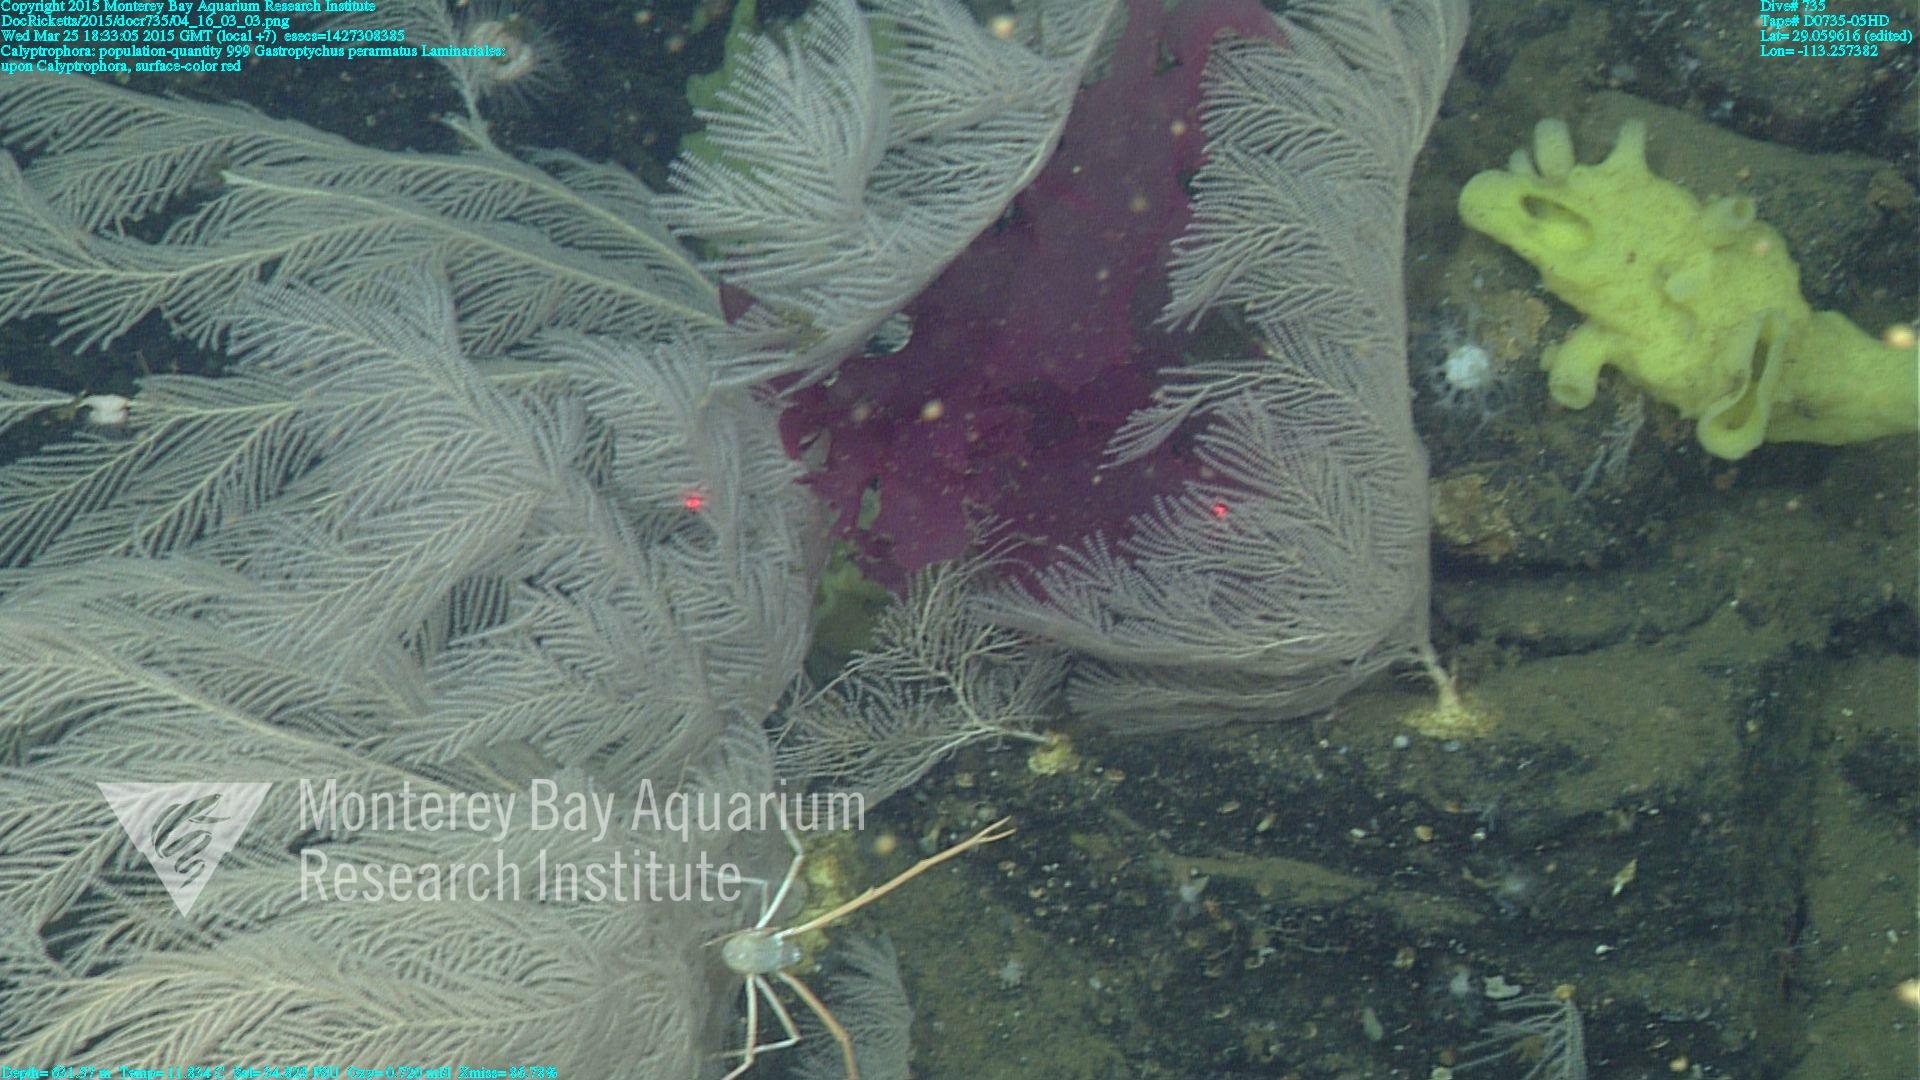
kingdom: Animalia
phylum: Cnidaria
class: Anthozoa
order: Scleralcyonacea
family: Primnoidae
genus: Calyptrophora
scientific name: Calyptrophora
